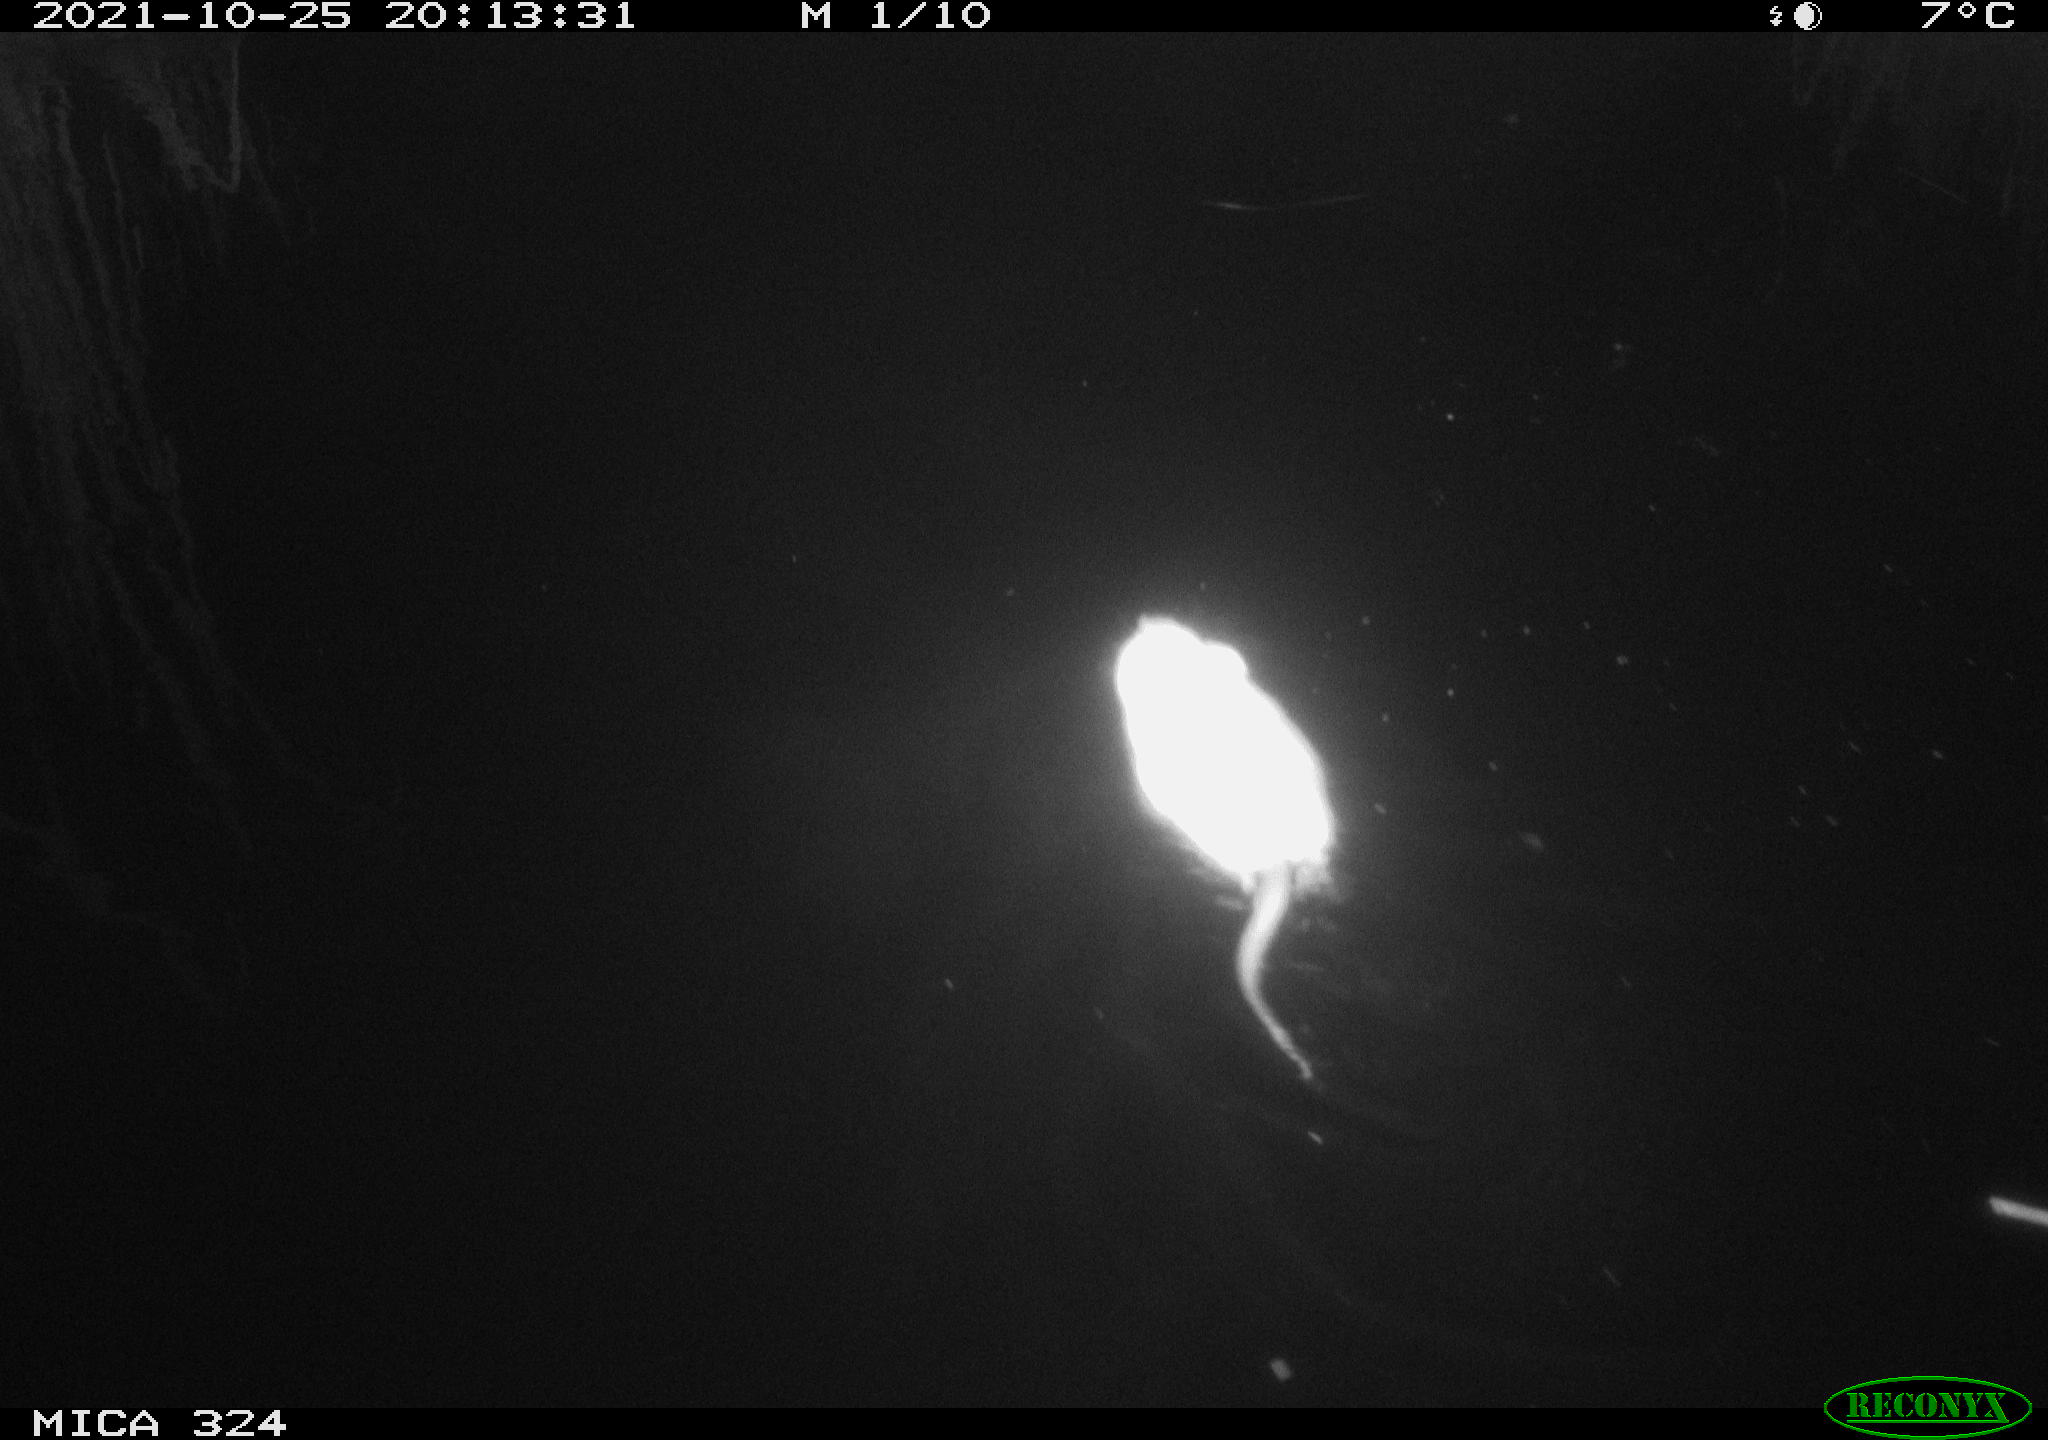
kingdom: Animalia
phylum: Chordata
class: Mammalia
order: Rodentia
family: Cricetidae
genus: Ondatra
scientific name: Ondatra zibethicus
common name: Muskrat
